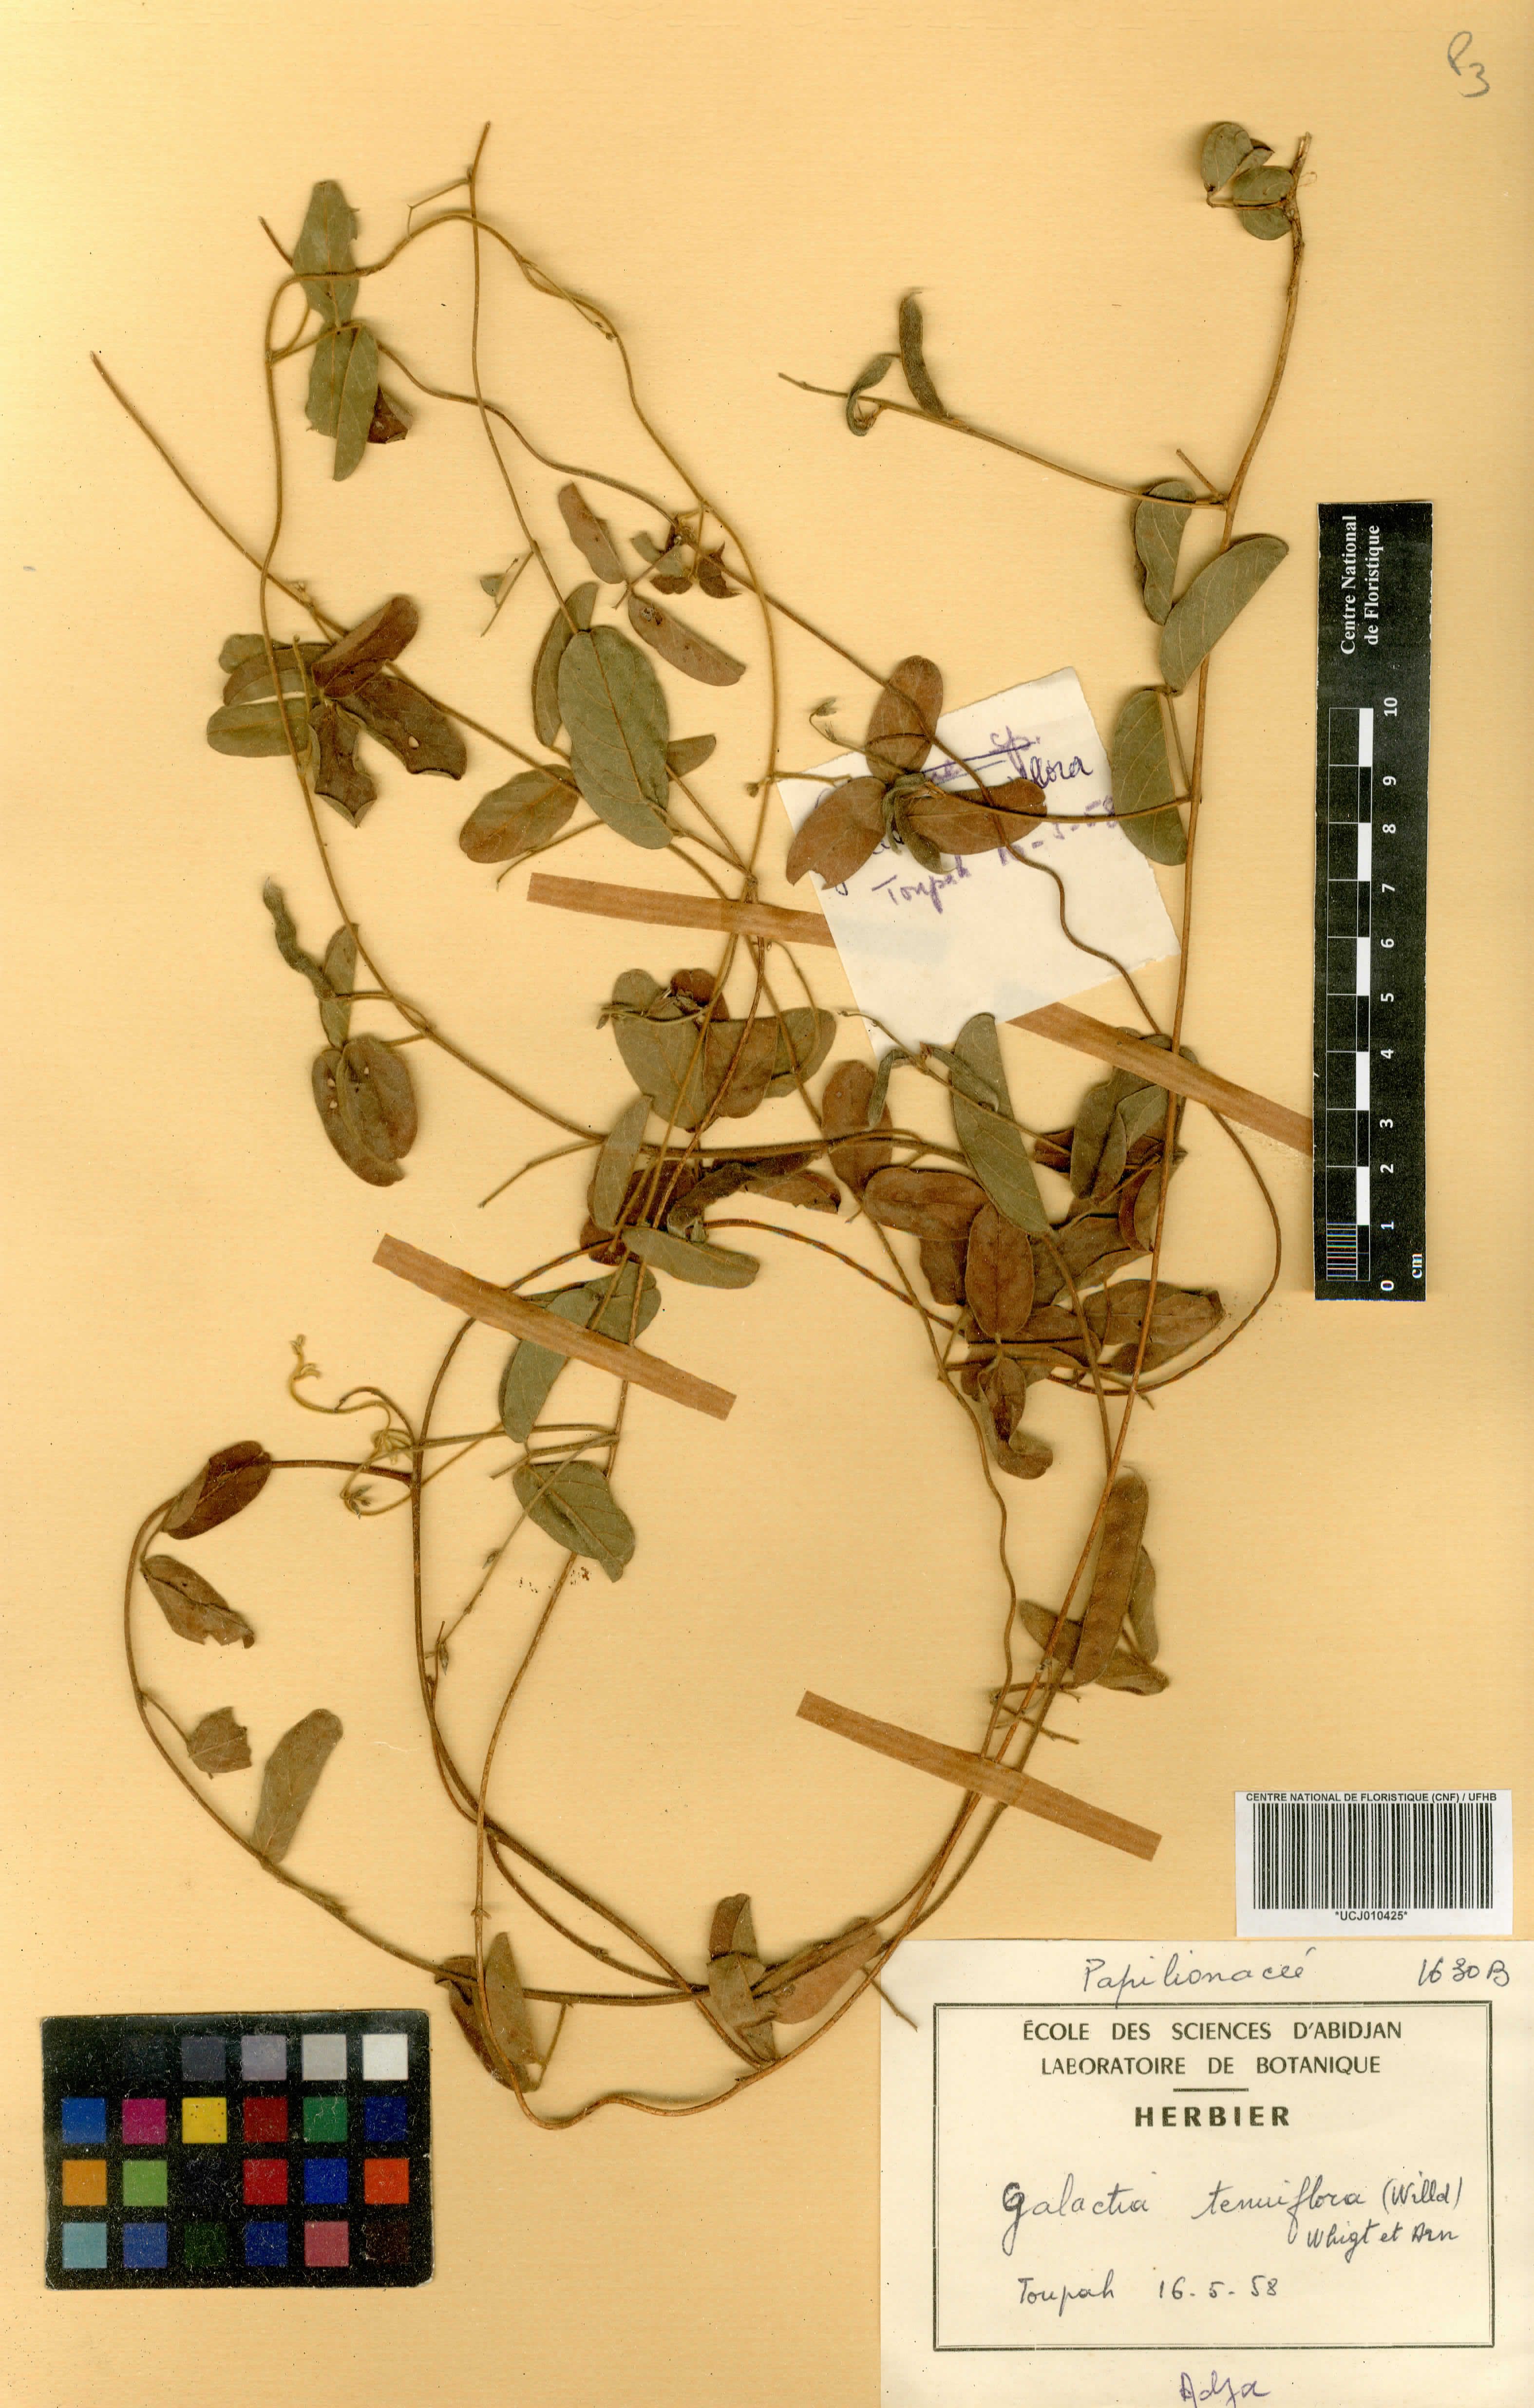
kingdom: Plantae
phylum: Tracheophyta
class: Magnoliopsida
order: Fabales
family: Fabaceae
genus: Galactia
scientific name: Galactia striata
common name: Florida hammock milkpea
